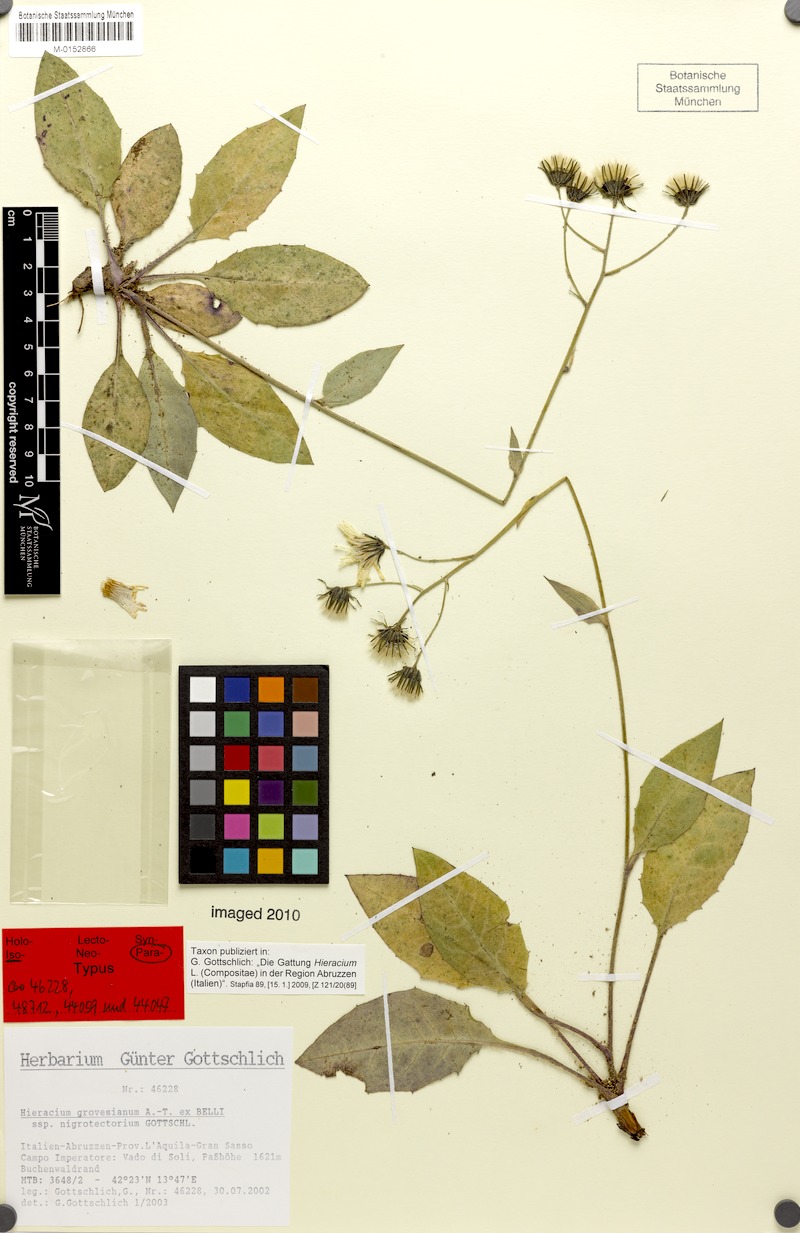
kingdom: Plantae
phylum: Tracheophyta
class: Magnoliopsida
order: Asterales
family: Asteraceae
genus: Hieracium
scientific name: Hieracium grovesianum
